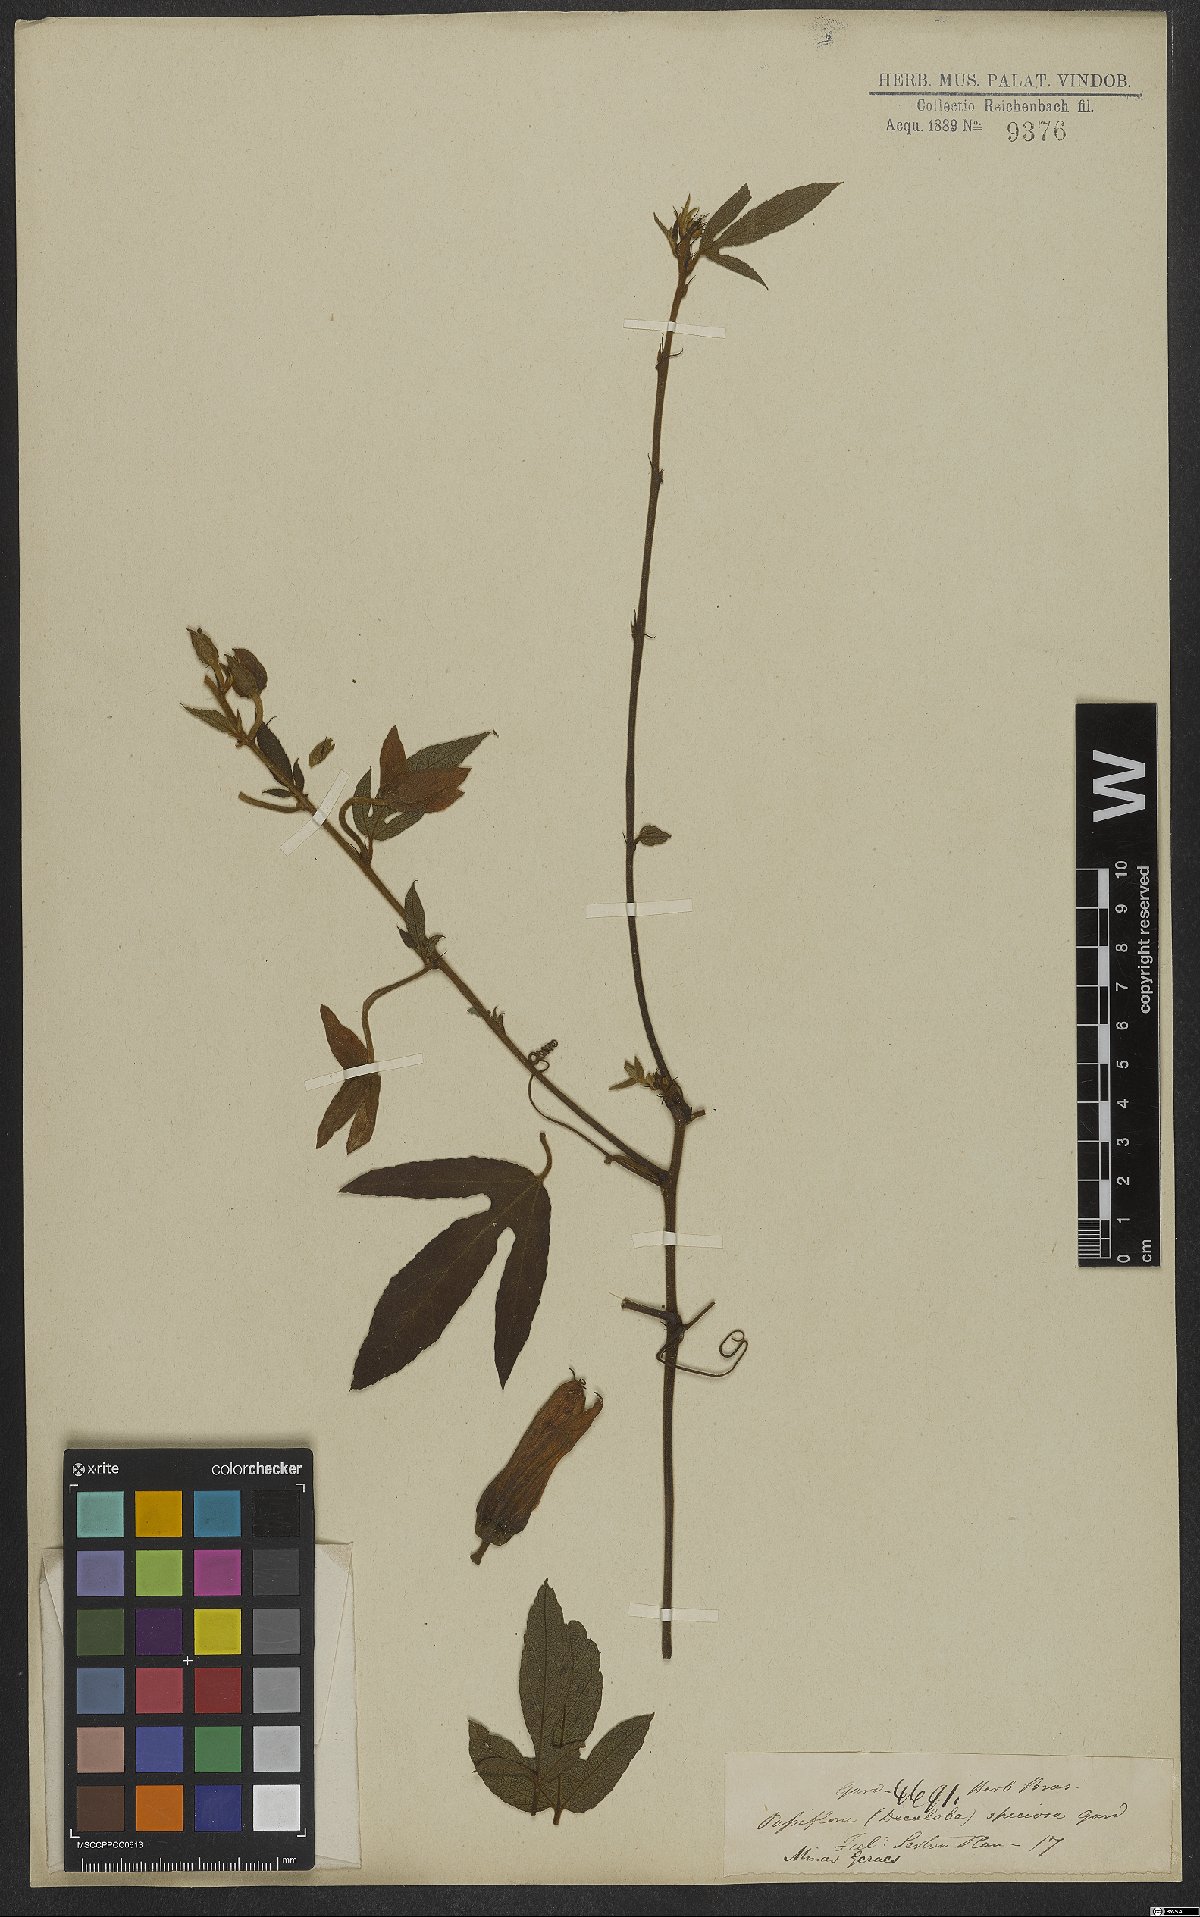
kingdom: Plantae
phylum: Tracheophyta
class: Magnoliopsida
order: Malpighiales
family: Passifloraceae
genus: Passiflora
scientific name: Passiflora speciosa
